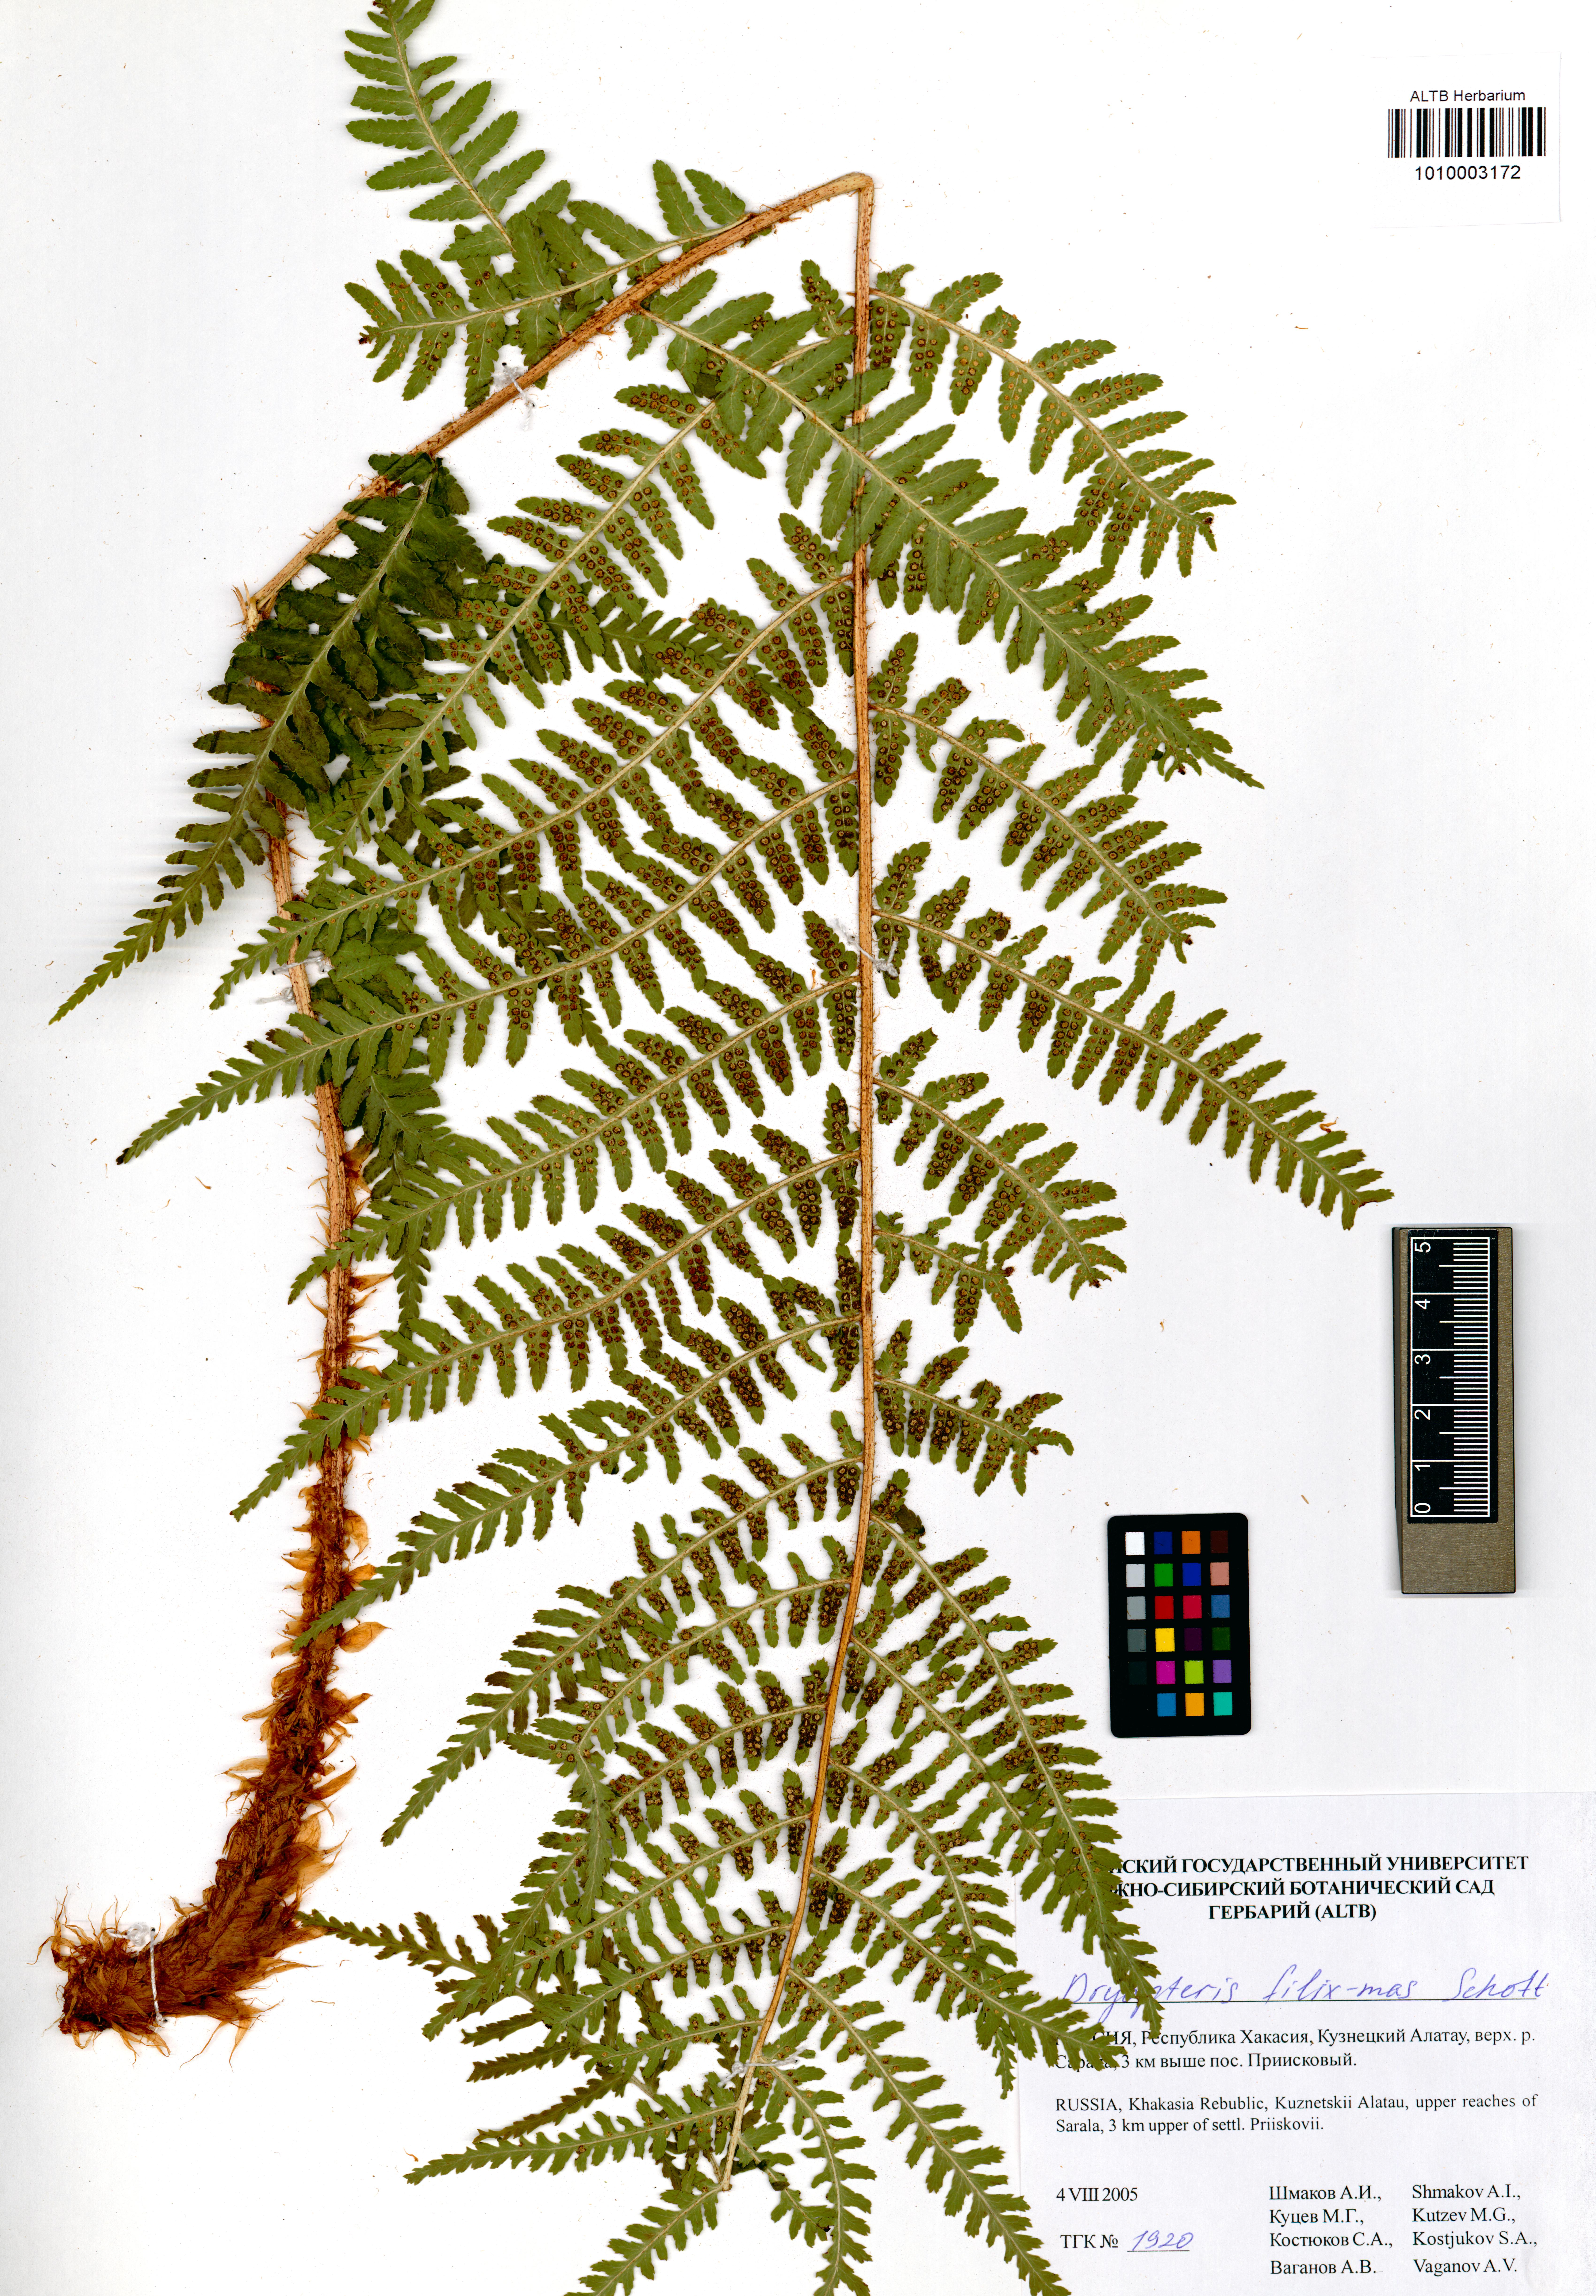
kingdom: Plantae
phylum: Tracheophyta
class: Polypodiopsida
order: Polypodiales
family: Dryopteridaceae
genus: Dryopteris
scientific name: Dryopteris filix-mas
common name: Male fern
